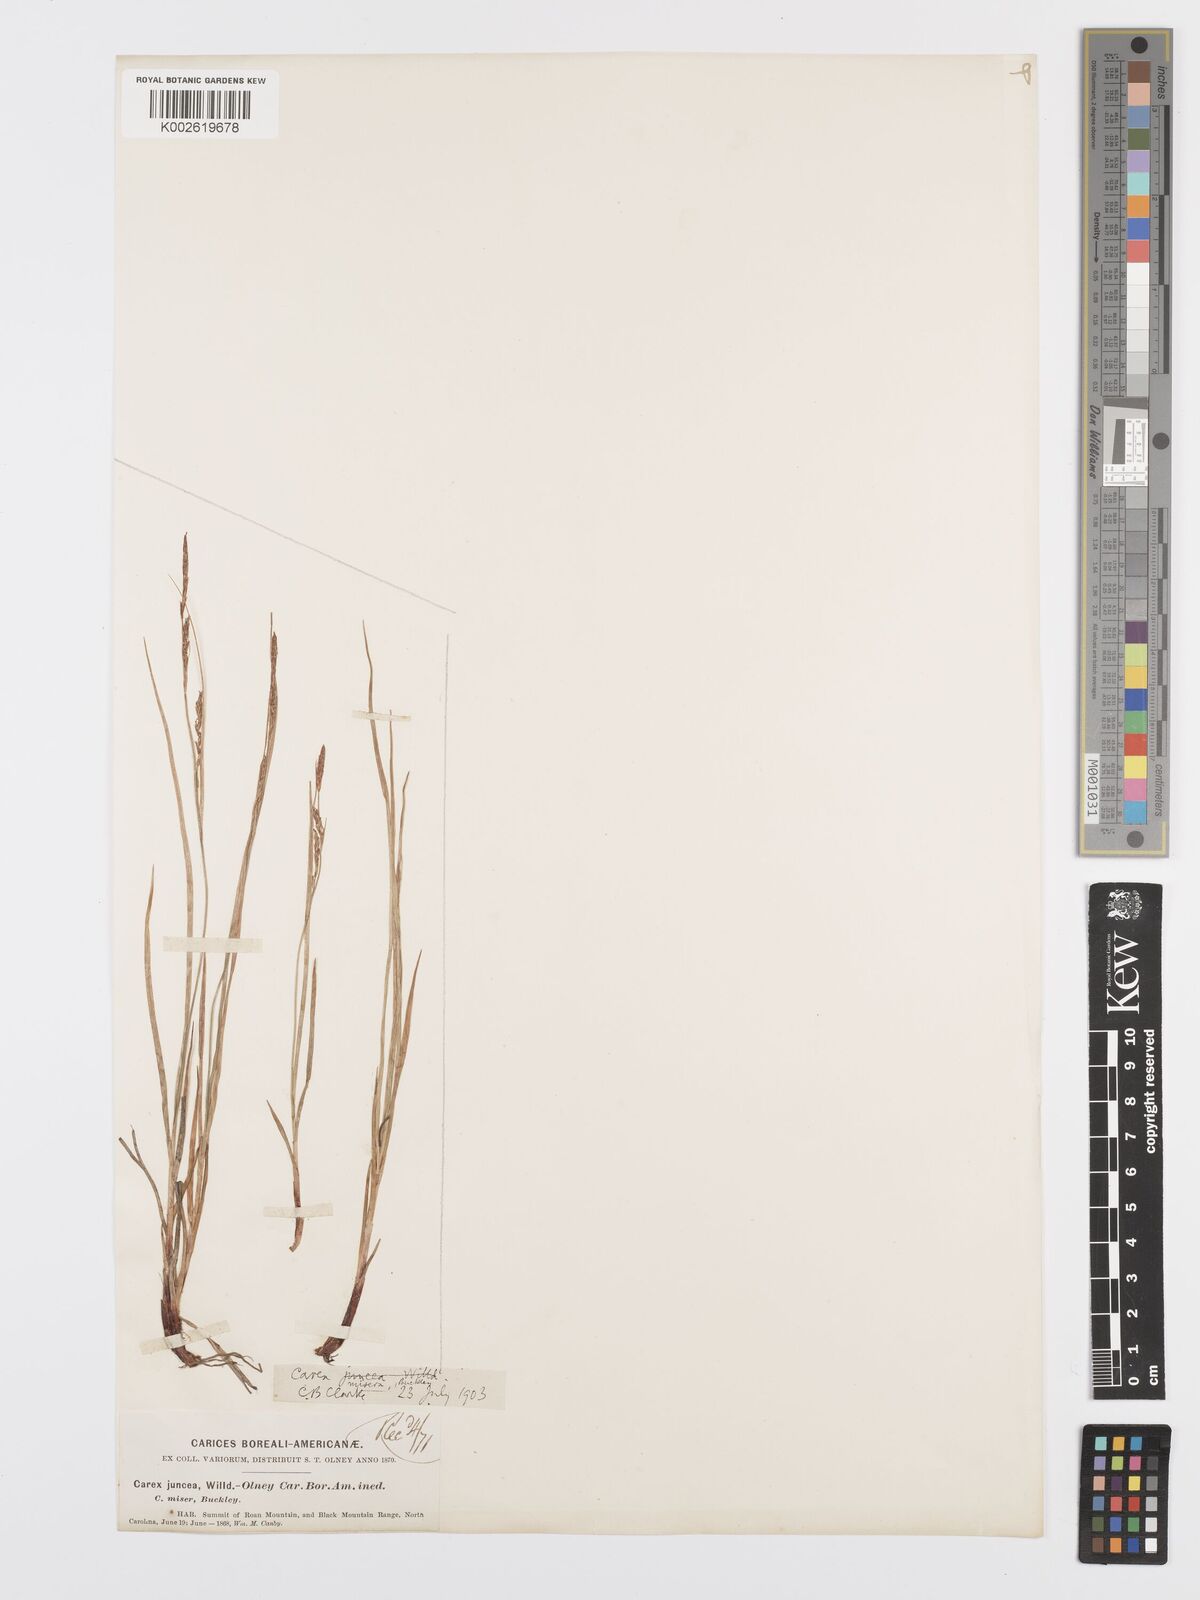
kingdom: Plantae
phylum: Tracheophyta
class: Liliopsida
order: Poales
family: Cyperaceae
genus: Carex
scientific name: Carex misera
